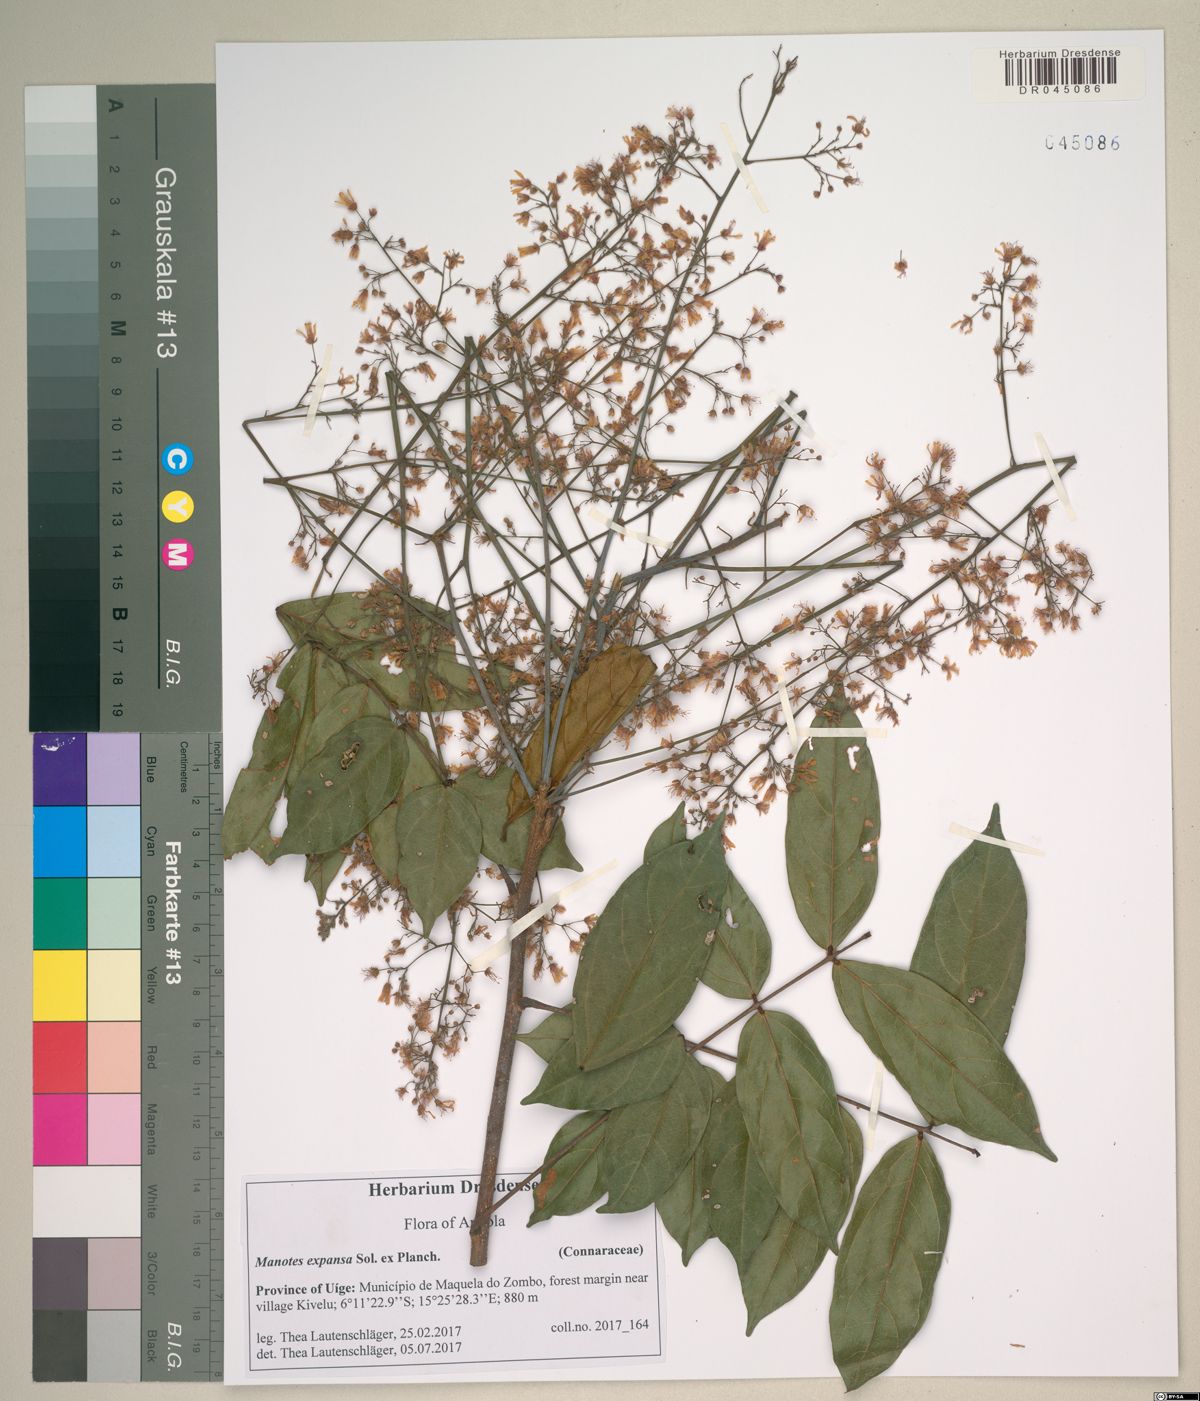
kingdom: Plantae
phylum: Tracheophyta
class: Magnoliopsida
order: Oxalidales
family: Connaraceae
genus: Manotes
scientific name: Manotes expansa
